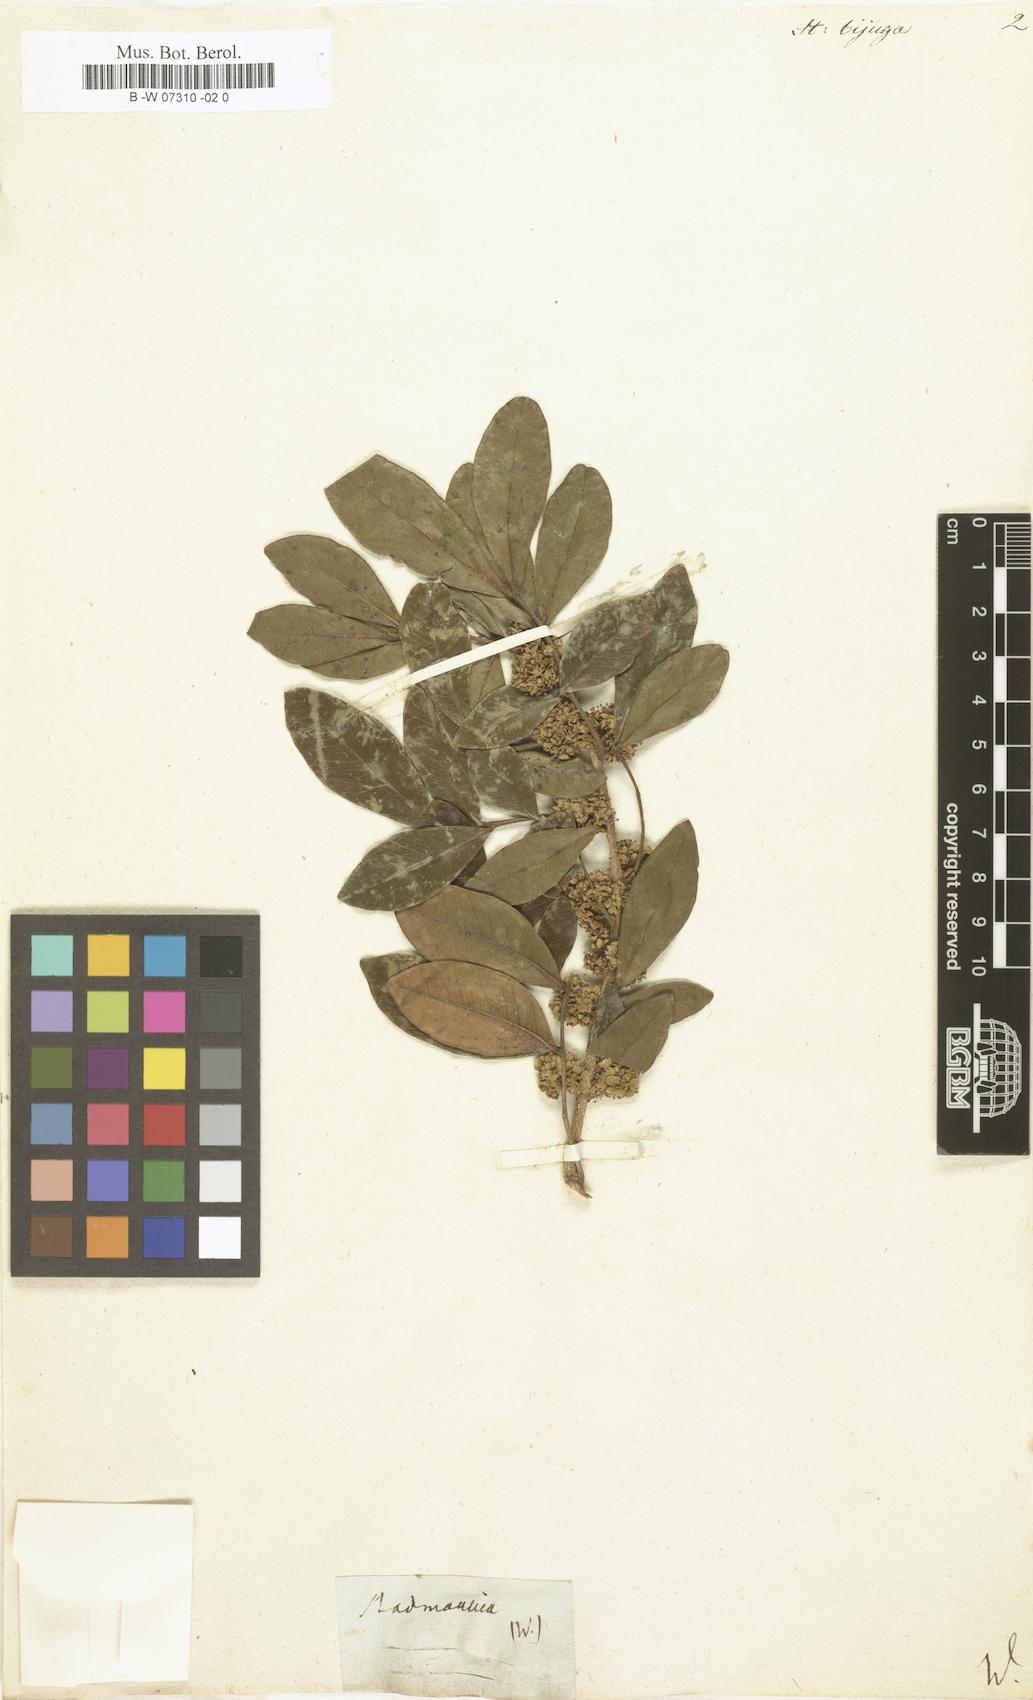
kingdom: Plantae
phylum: Tracheophyta
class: Magnoliopsida
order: Sapindales
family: Sapindaceae
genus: Melicoccus
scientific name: Melicoccus bijugatus
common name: Spanish lime
